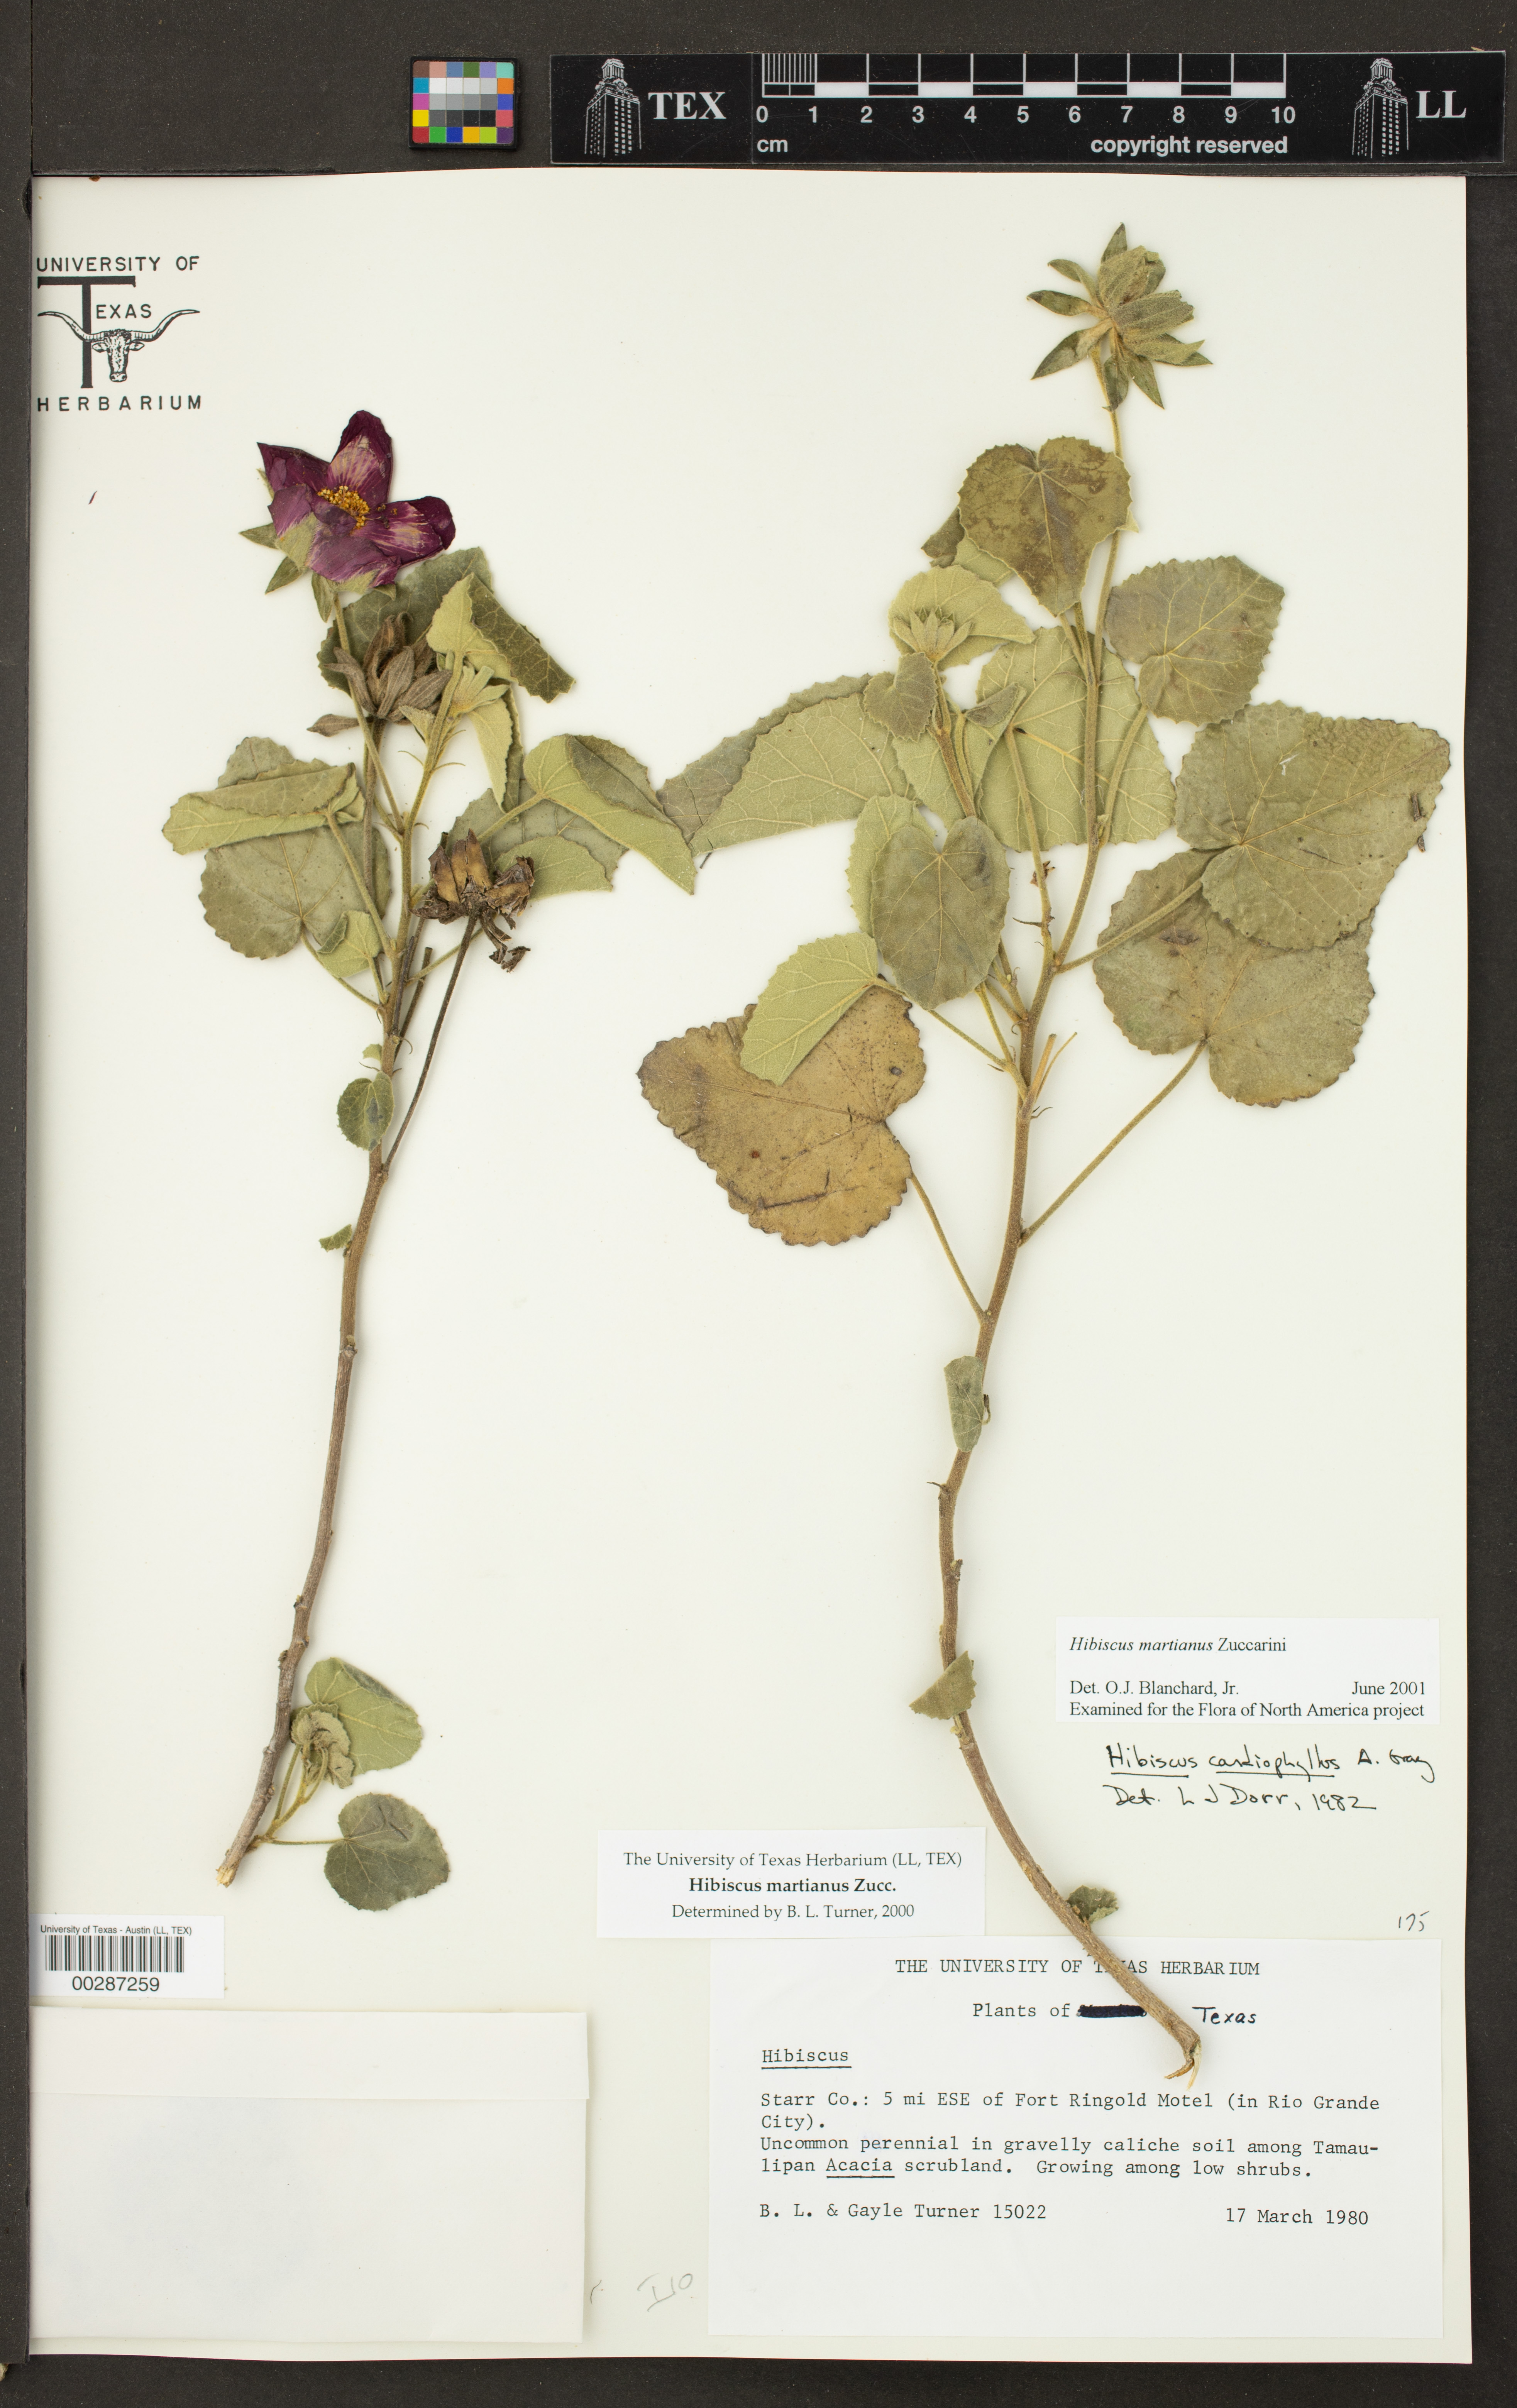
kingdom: Plantae
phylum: Tracheophyta
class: Magnoliopsida
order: Malvales
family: Malvaceae
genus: Hibiscus
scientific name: Hibiscus martianus
